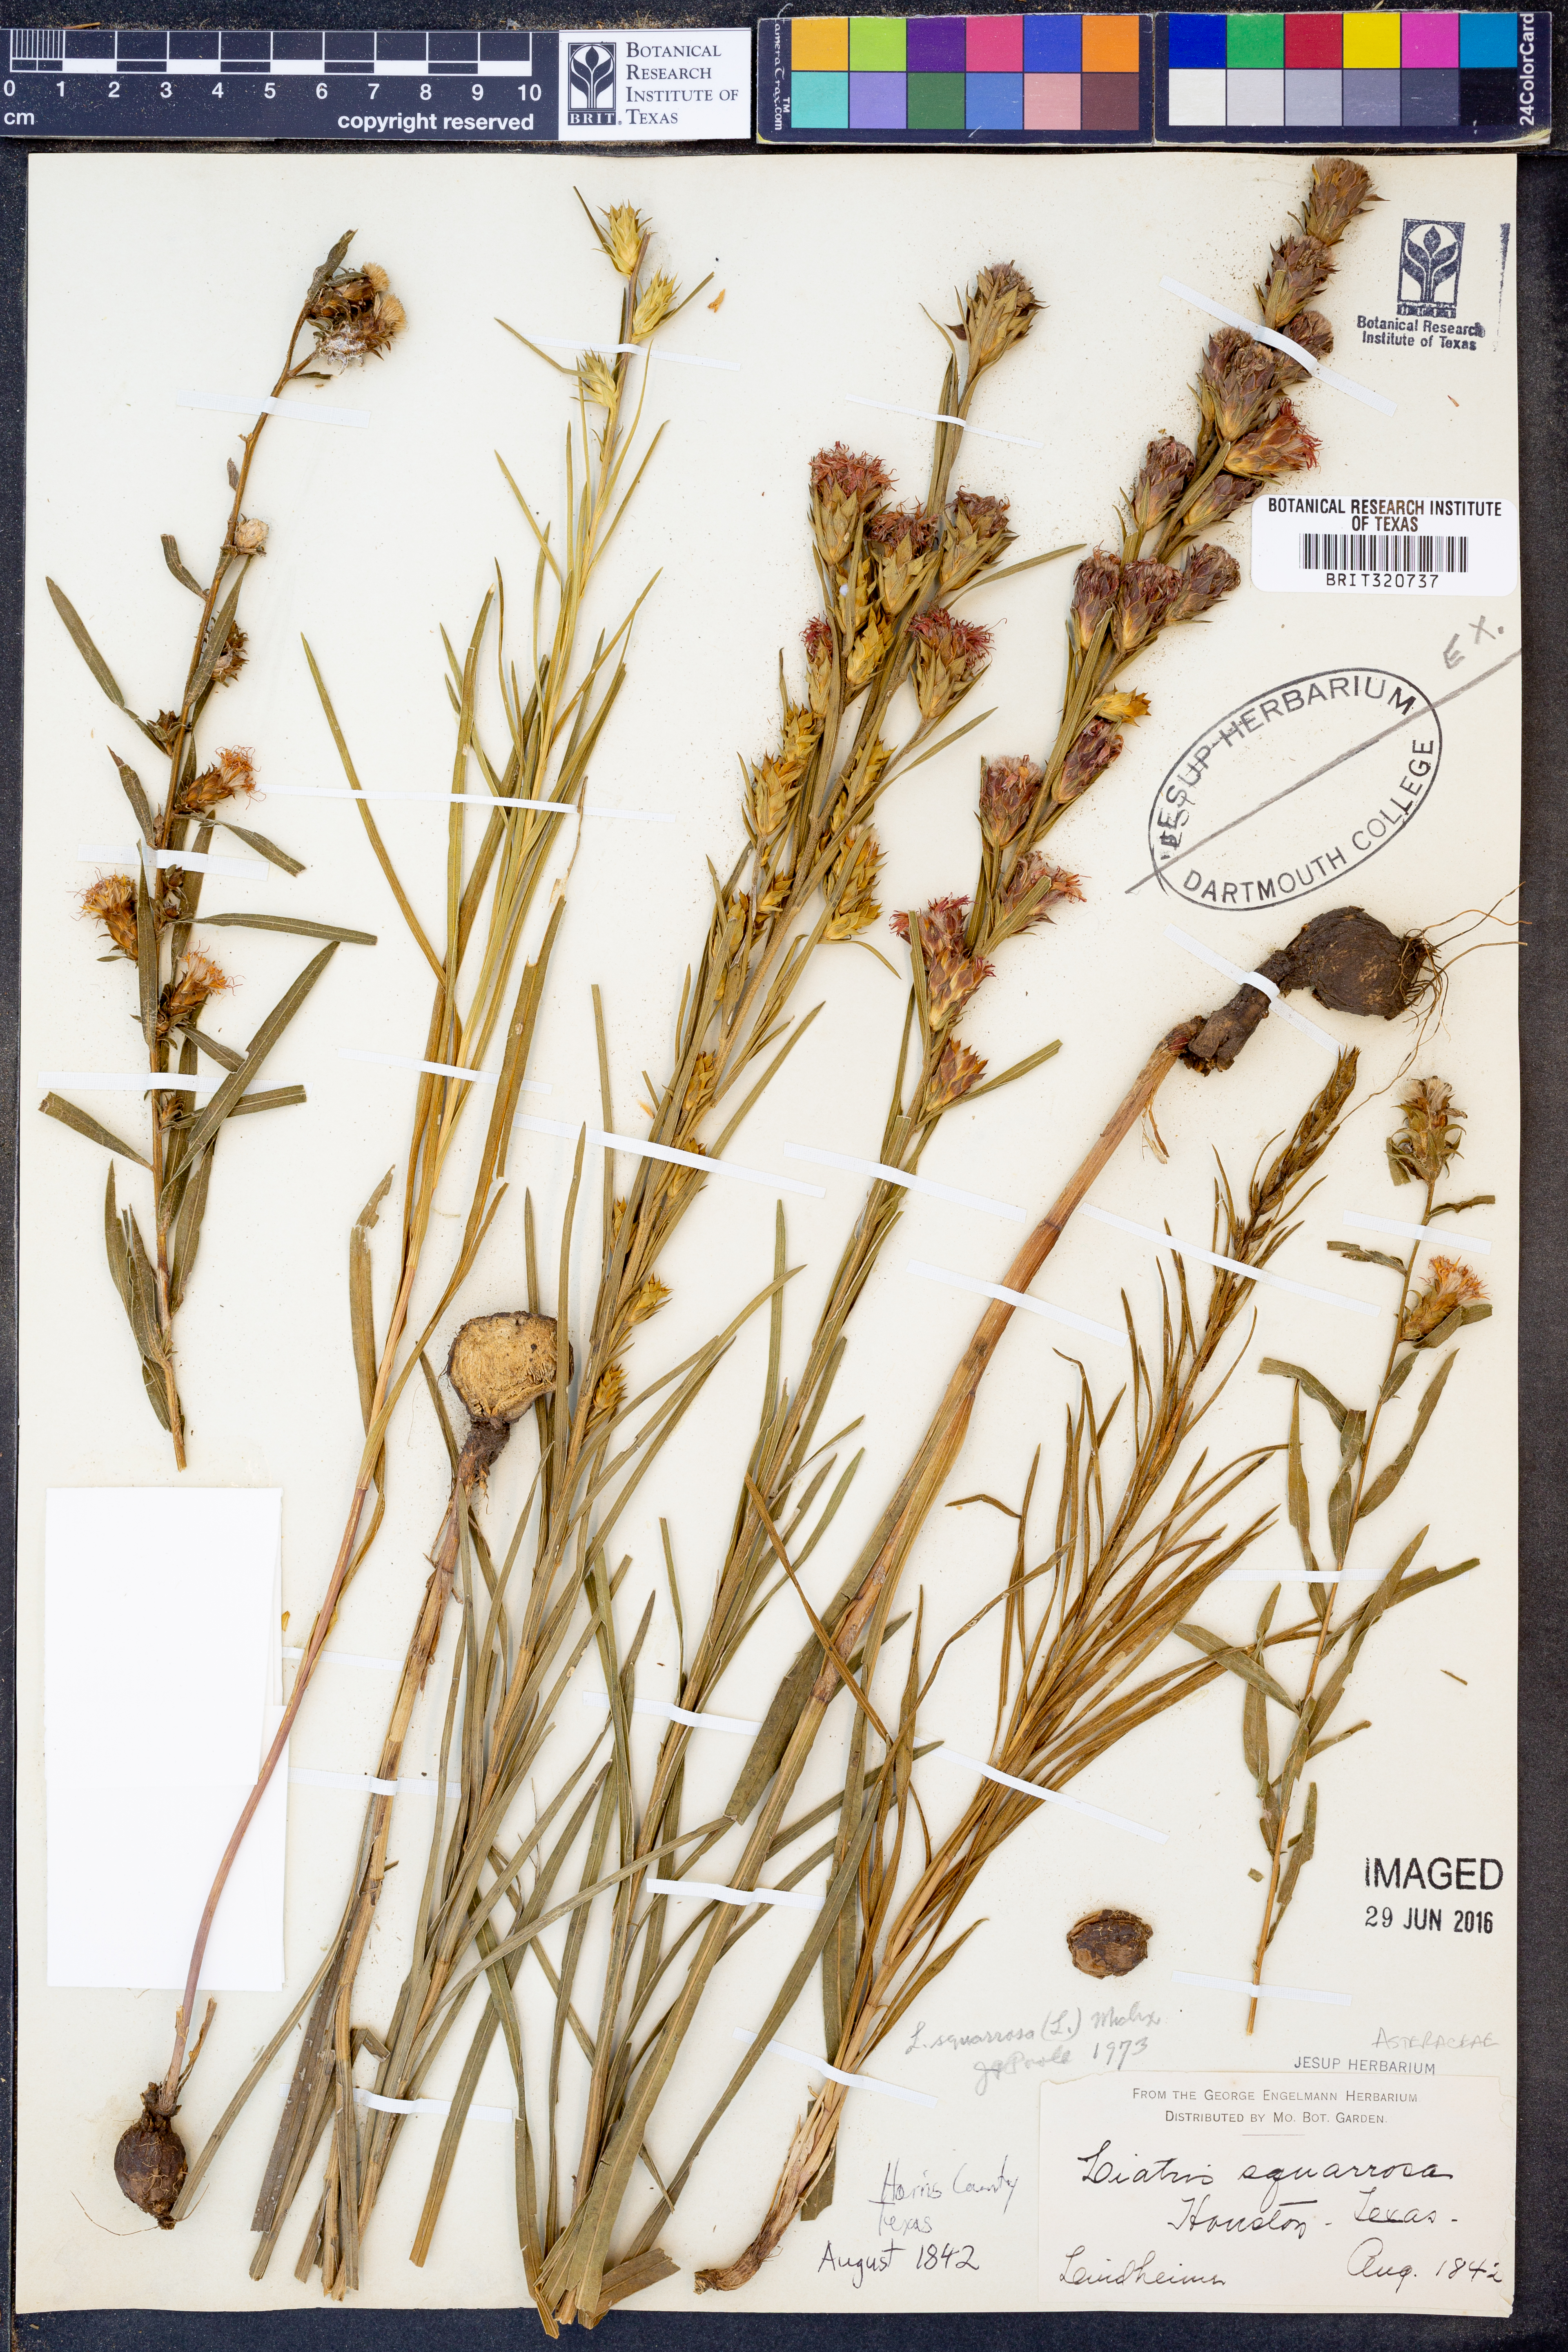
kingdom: Plantae
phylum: Tracheophyta
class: Magnoliopsida
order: Asterales
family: Asteraceae
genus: Liatris
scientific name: Liatris squarrosa
